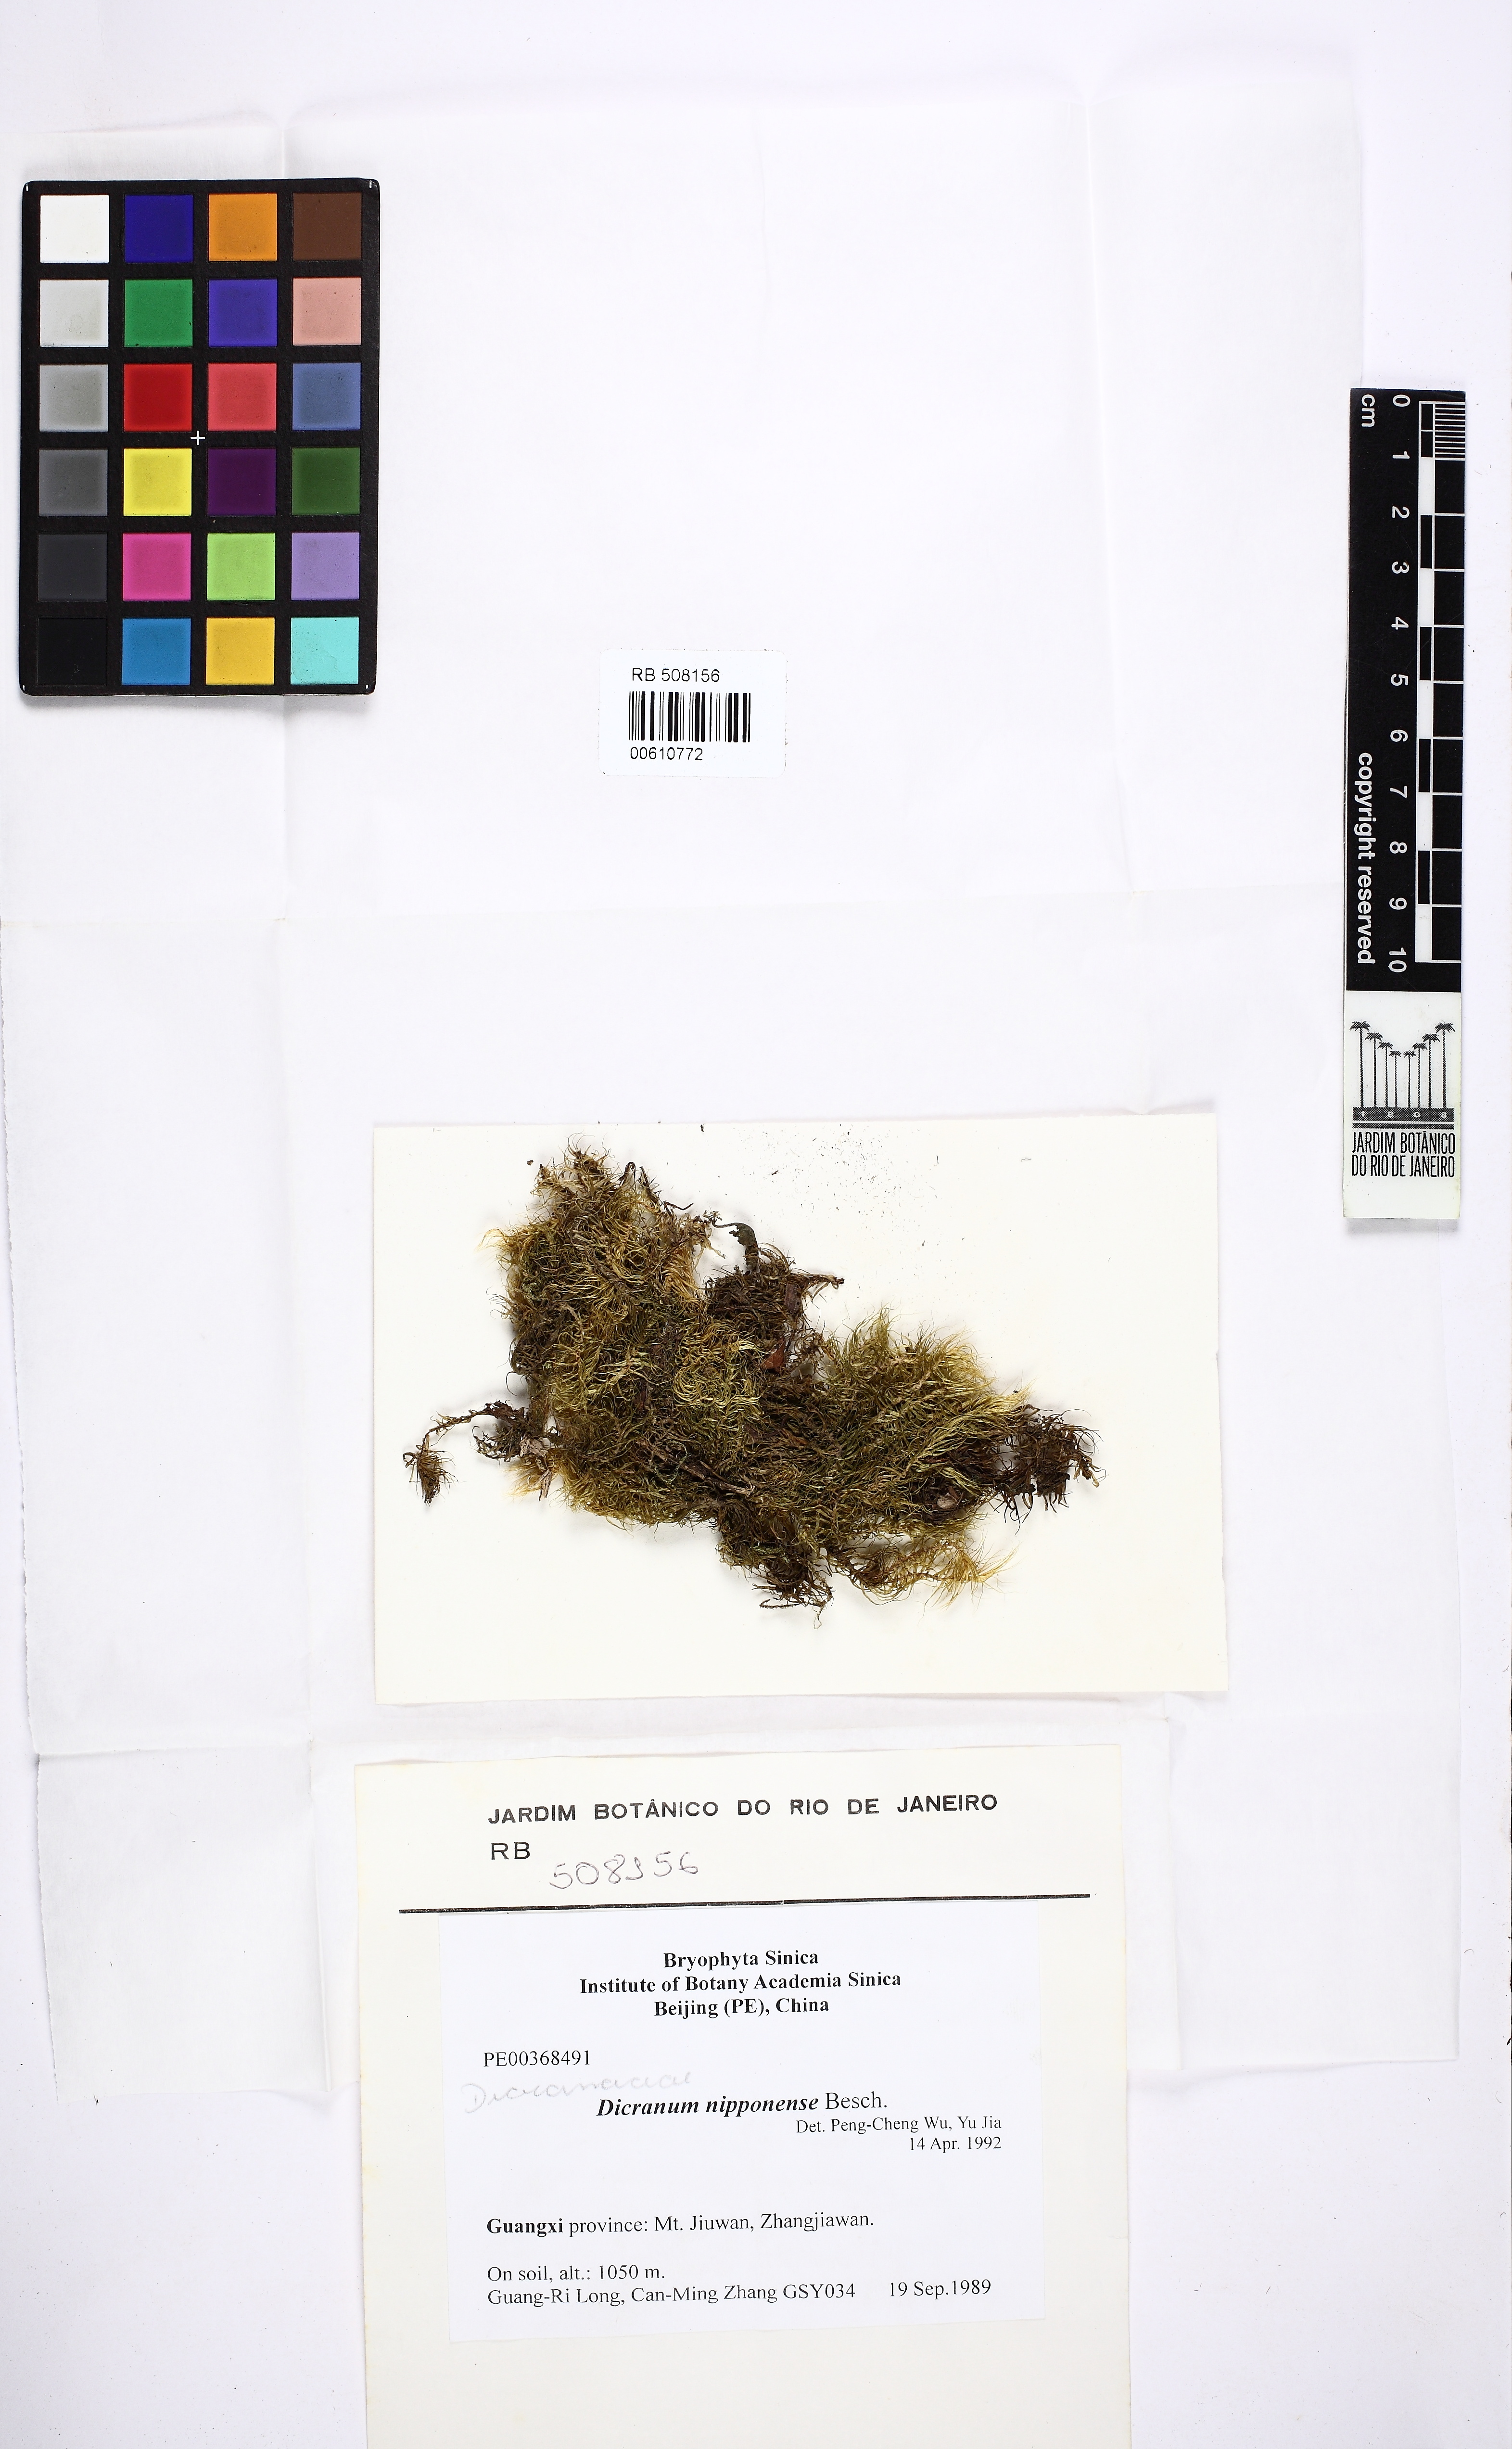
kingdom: Plantae
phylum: Bryophyta
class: Bryopsida
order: Dicranales
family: Dicranaceae
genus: Dicranum
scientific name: Dicranum nipponense
